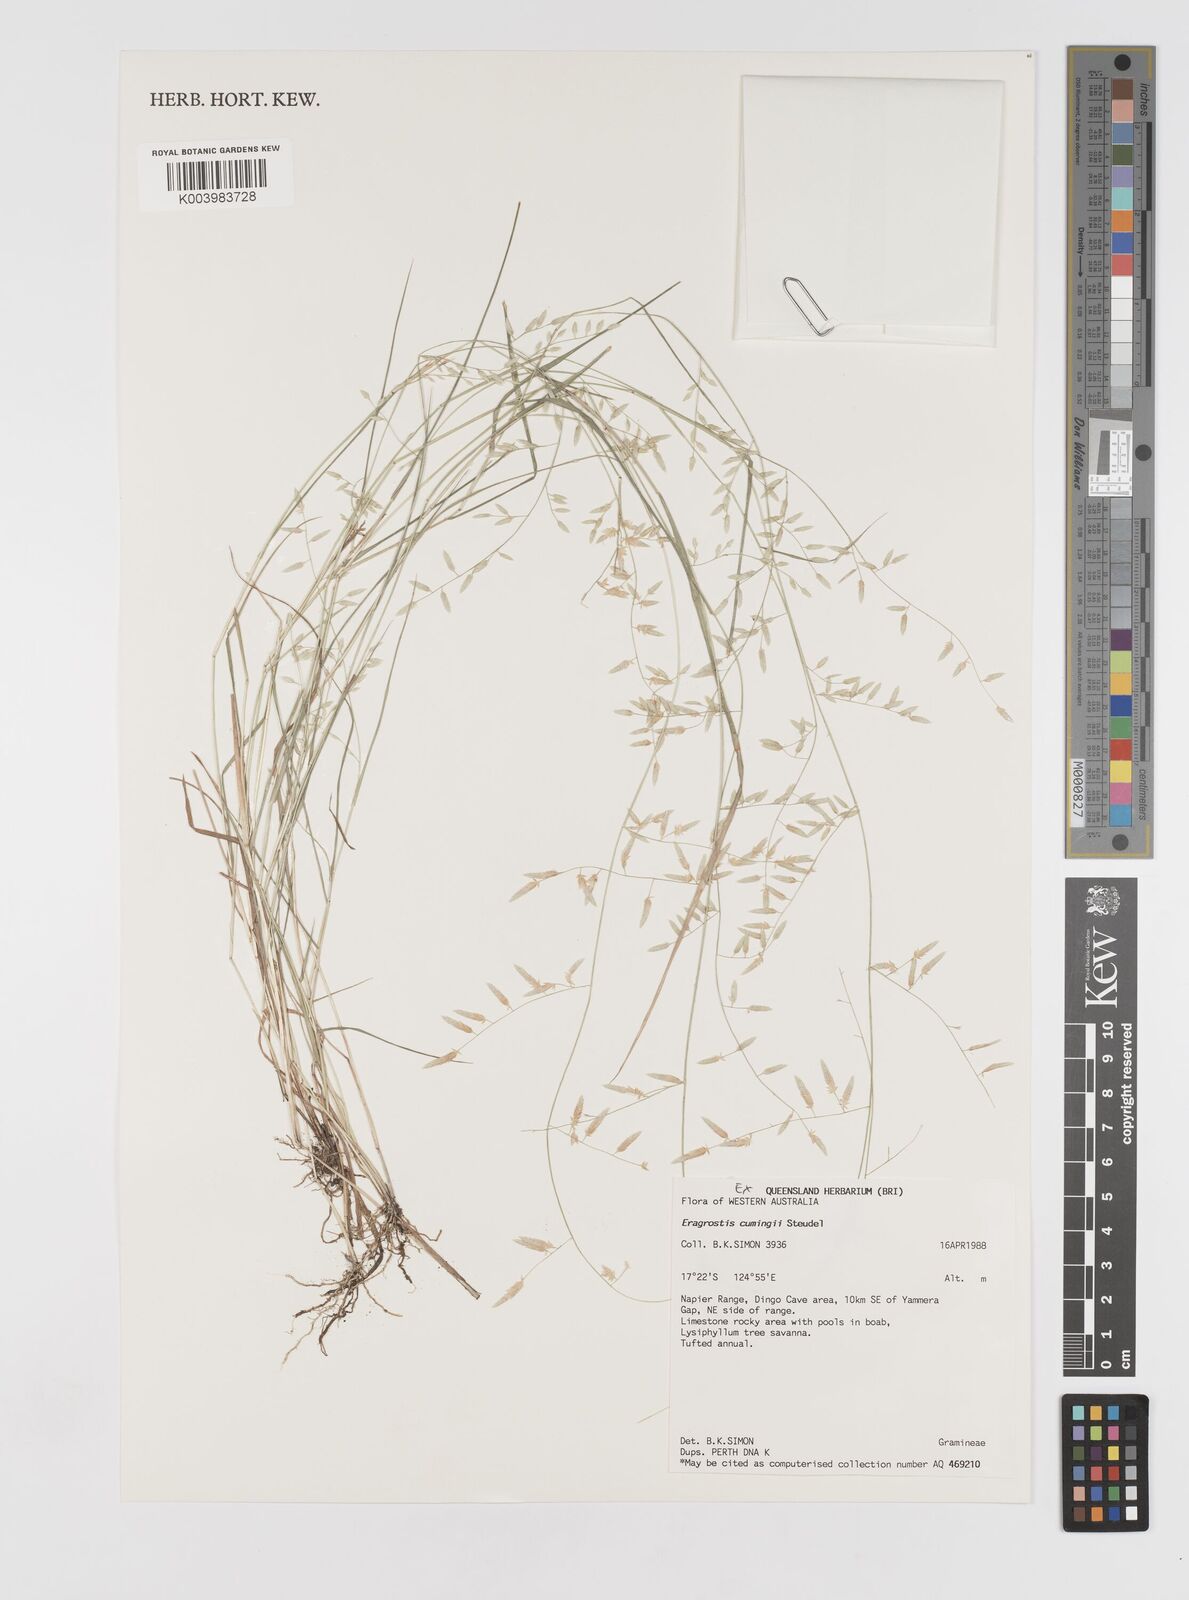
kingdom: Plantae
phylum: Tracheophyta
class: Liliopsida
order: Poales
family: Poaceae
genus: Eragrostis
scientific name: Eragrostis cumingii
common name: Cuming's lovegrass
